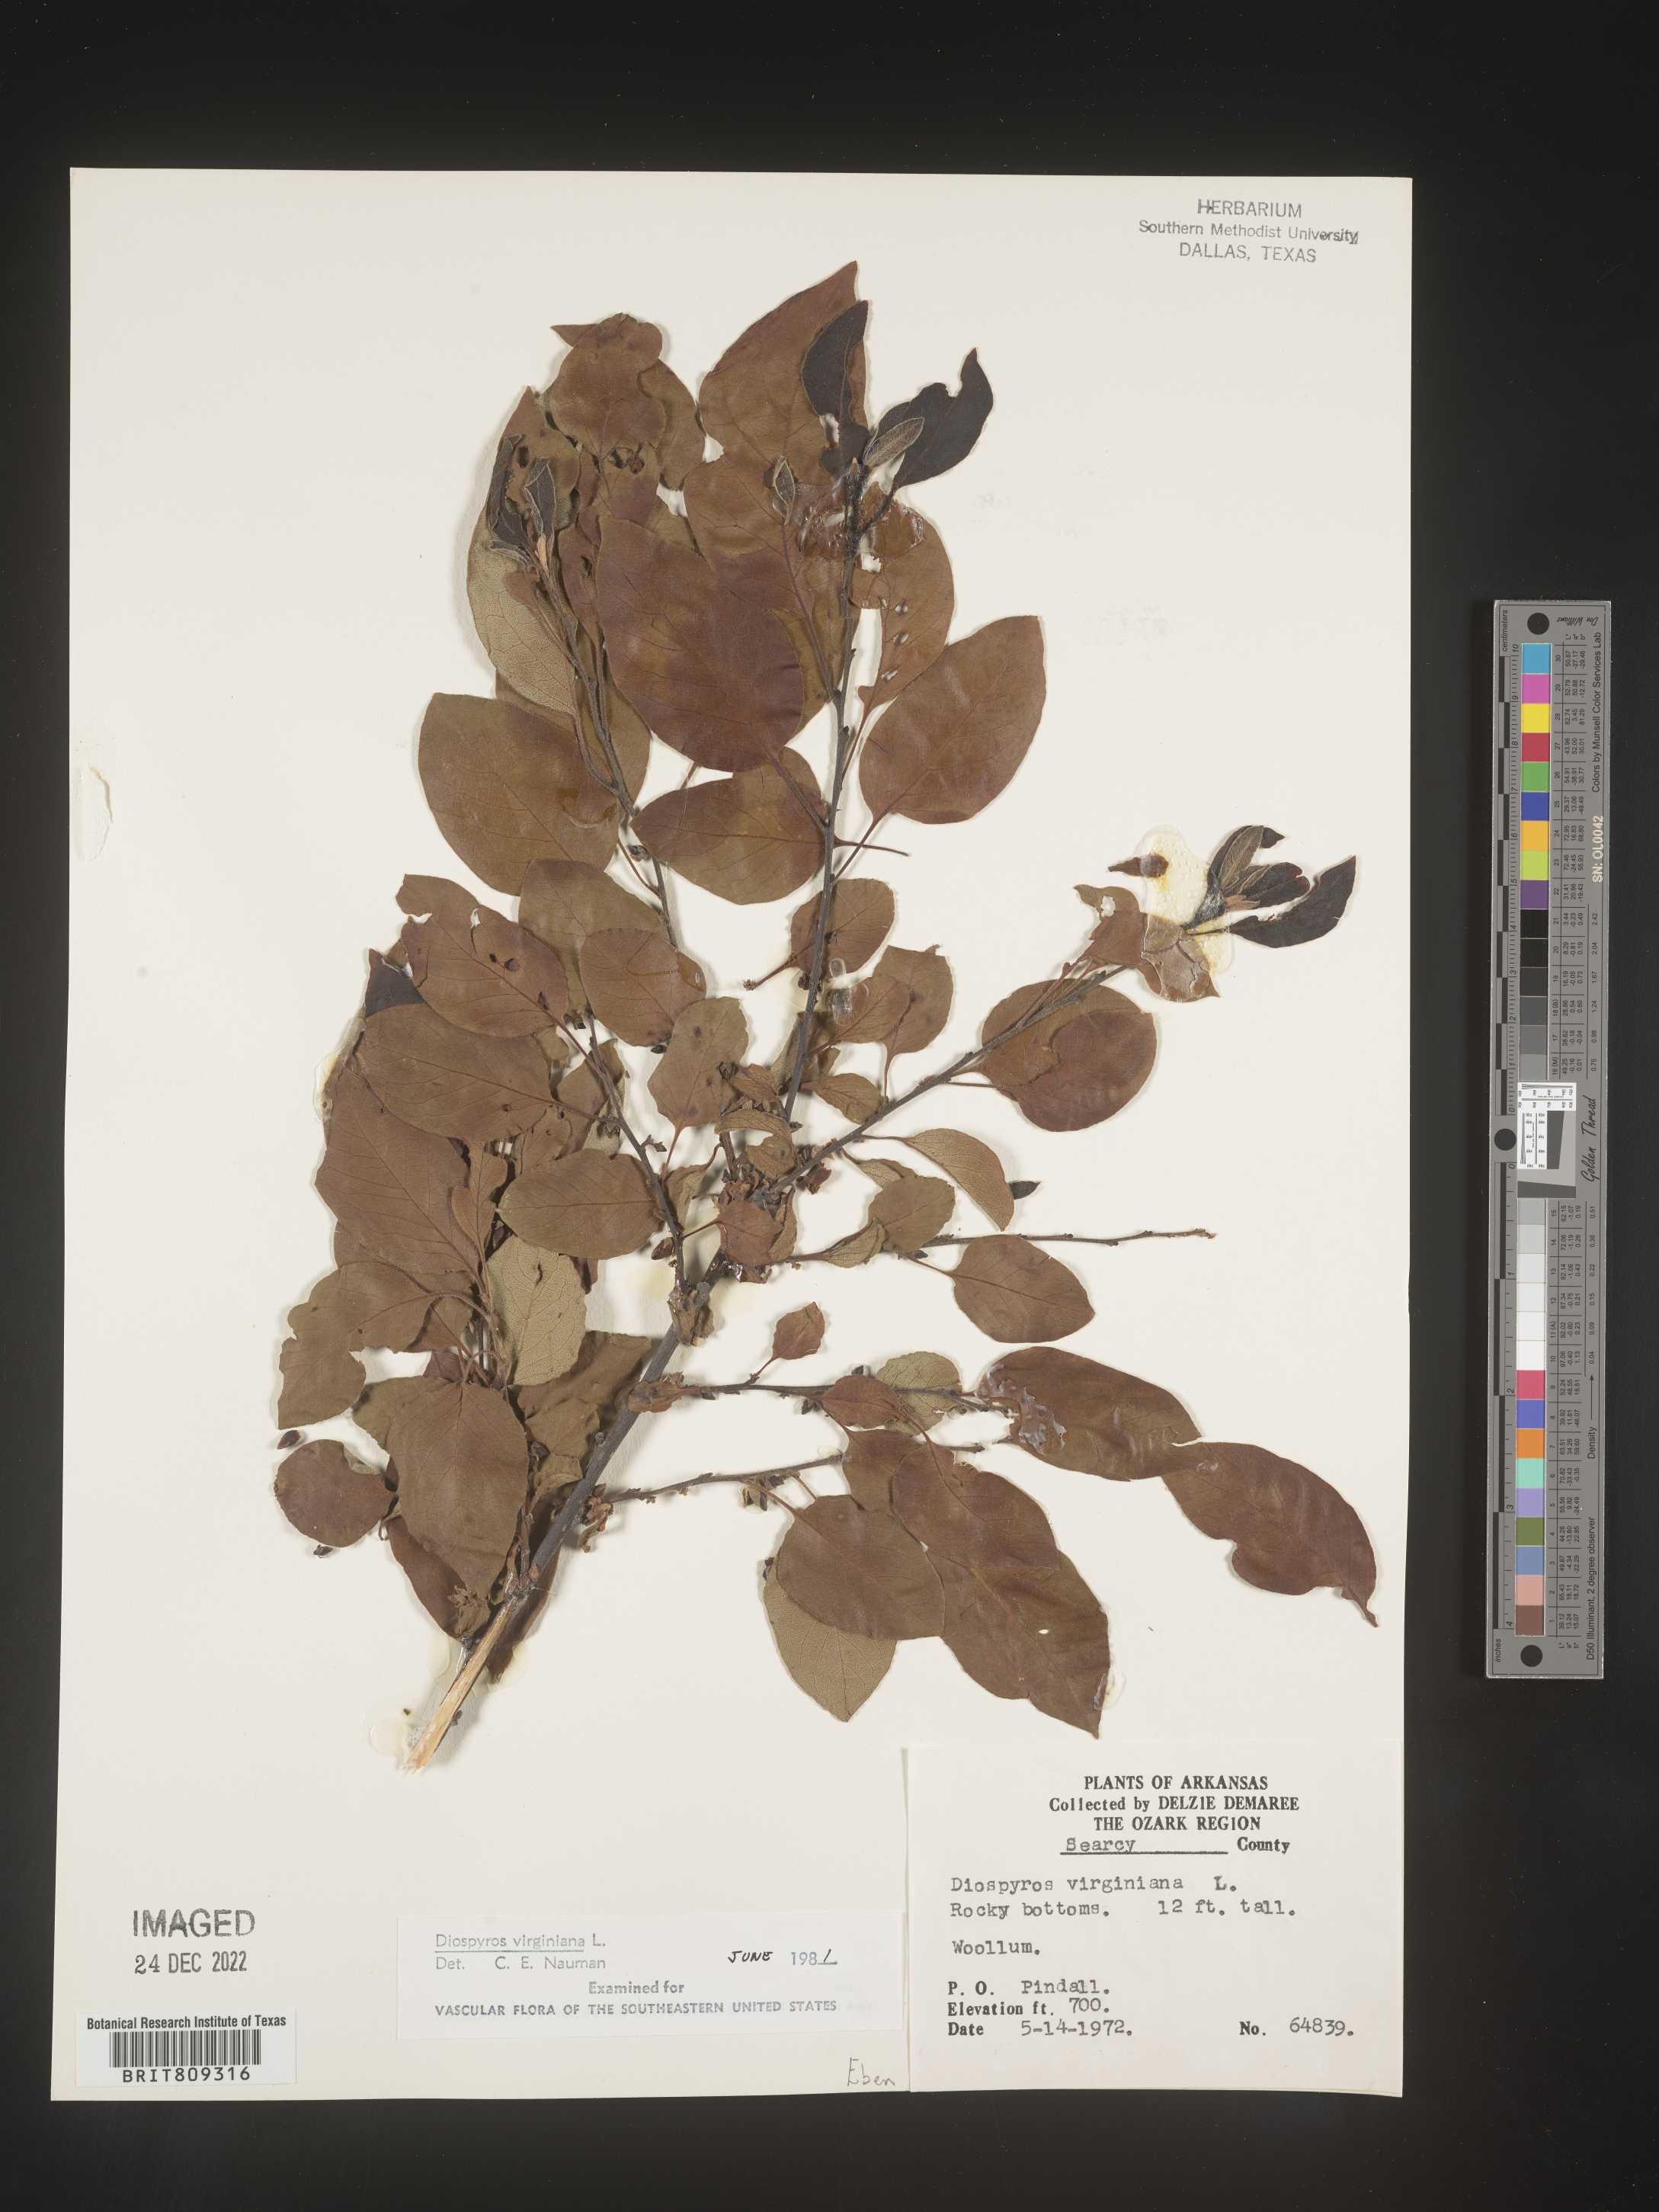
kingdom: Plantae
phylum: Tracheophyta
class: Magnoliopsida
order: Ericales
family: Ebenaceae
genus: Diospyros
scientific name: Diospyros virginiana
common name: Persimmon
